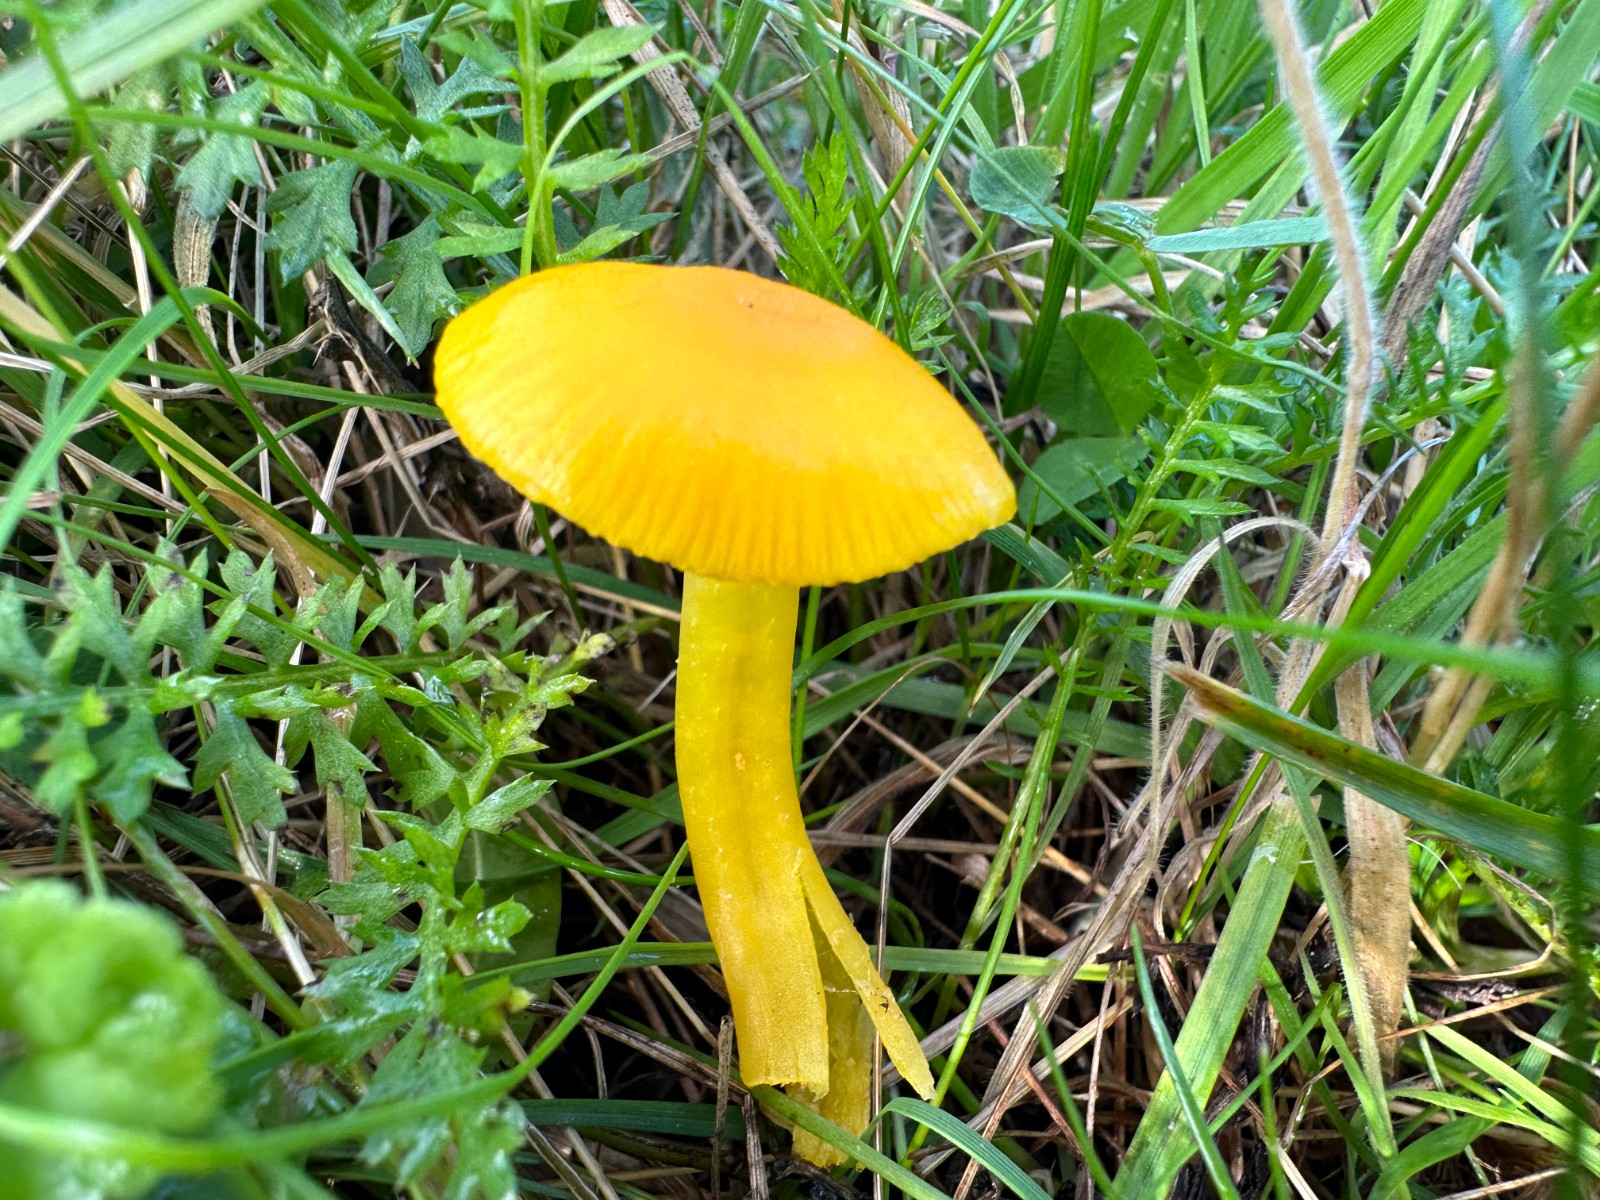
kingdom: Fungi
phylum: Basidiomycota
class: Agaricomycetes
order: Agaricales
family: Hygrophoraceae
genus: Hygrocybe
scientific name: Hygrocybe ceracea
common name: voksgul vokshat
